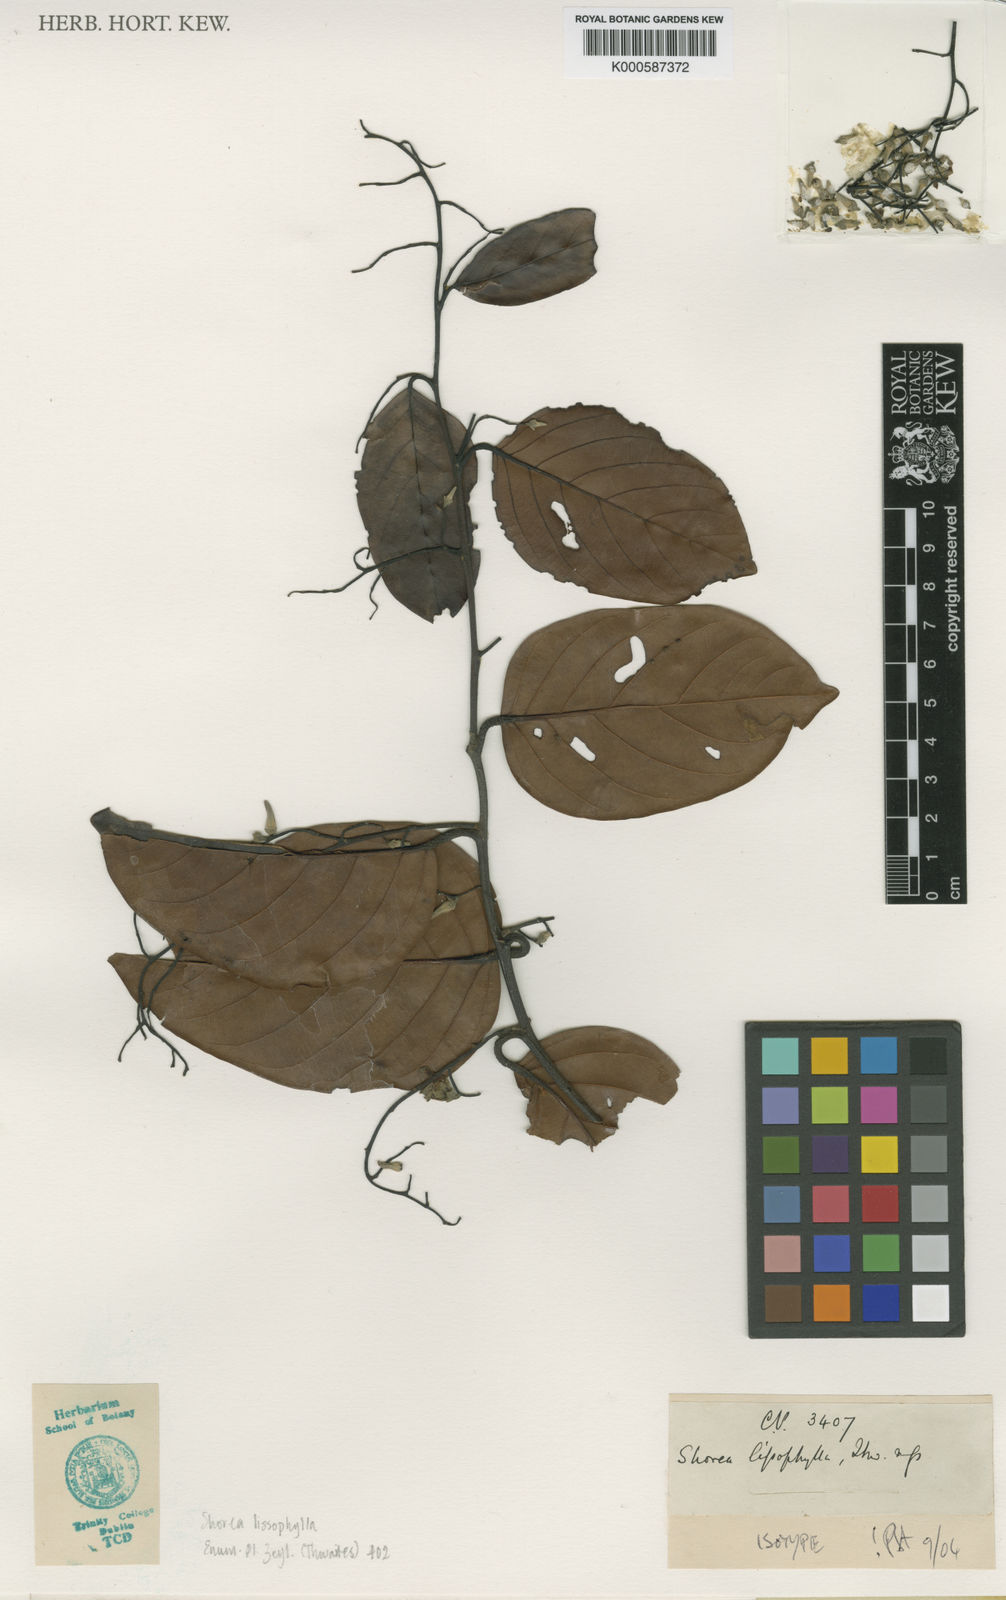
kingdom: Plantae
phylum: Tracheophyta
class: Magnoliopsida
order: Malvales
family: Dipterocarpaceae
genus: Shorea
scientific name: Shorea lissophylla
